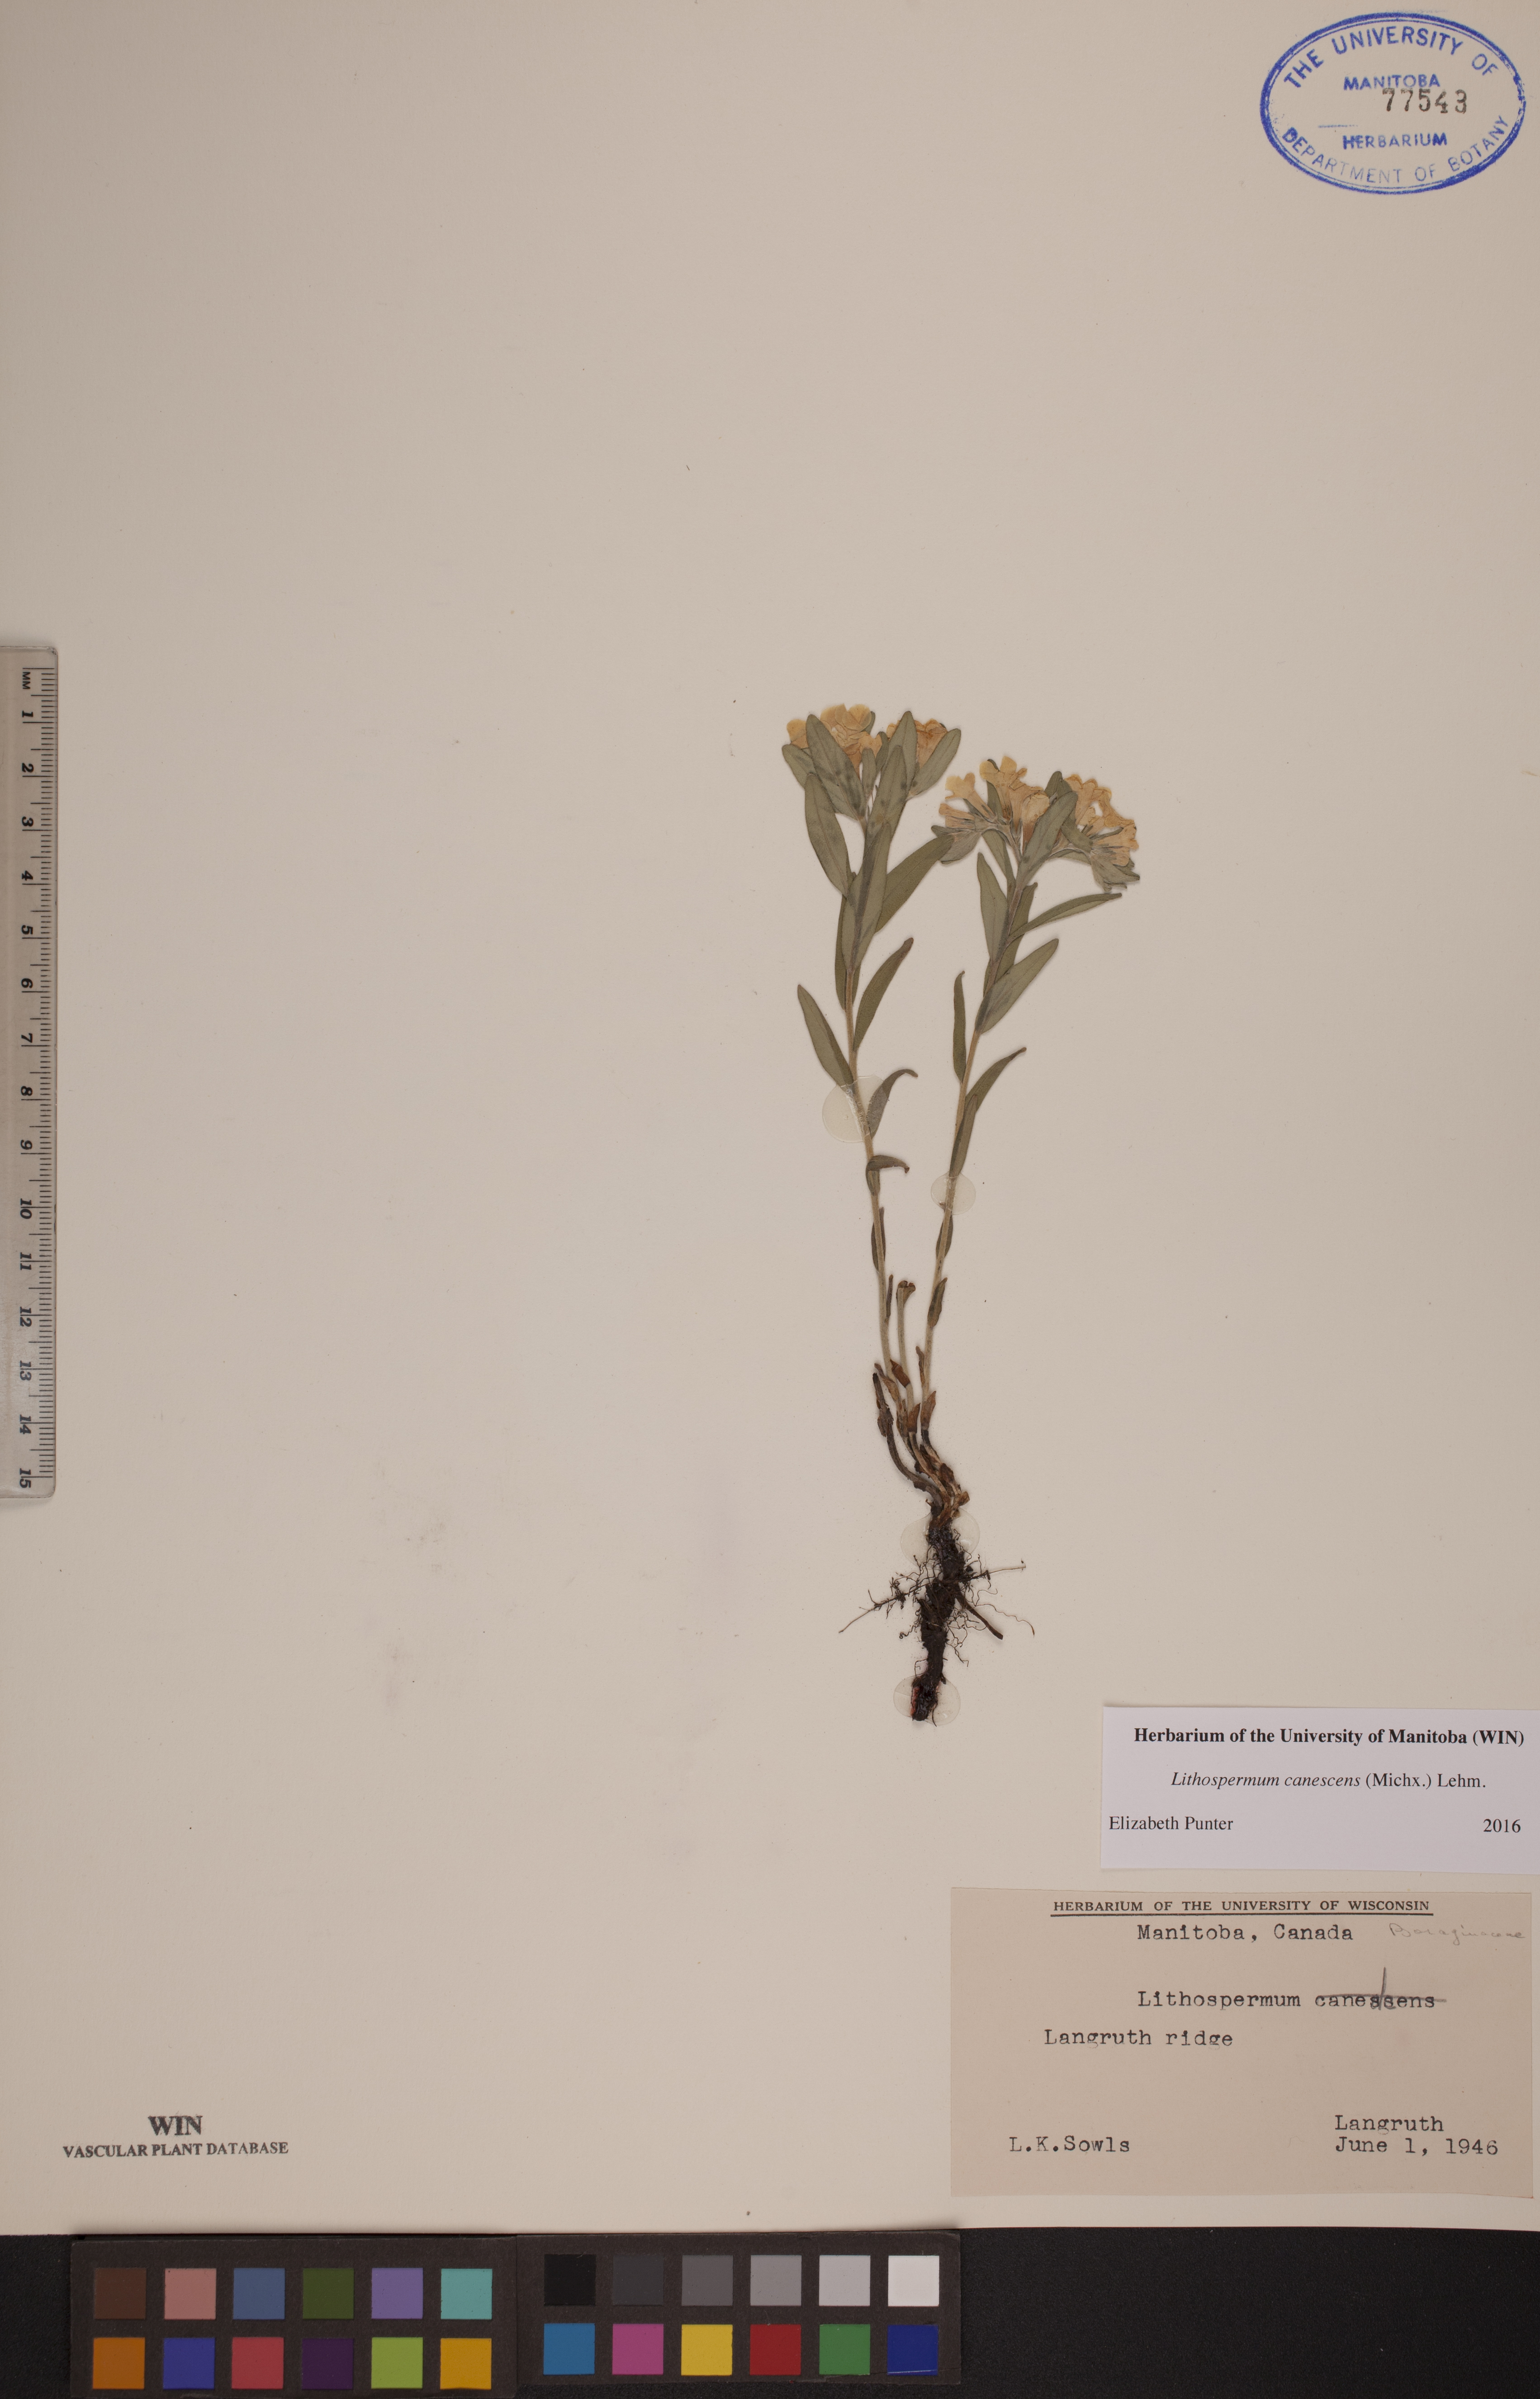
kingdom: Plantae
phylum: Tracheophyta
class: Magnoliopsida
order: Boraginales
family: Boraginaceae
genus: Lithospermum
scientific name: Lithospermum canescens
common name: Hoary puccoon
